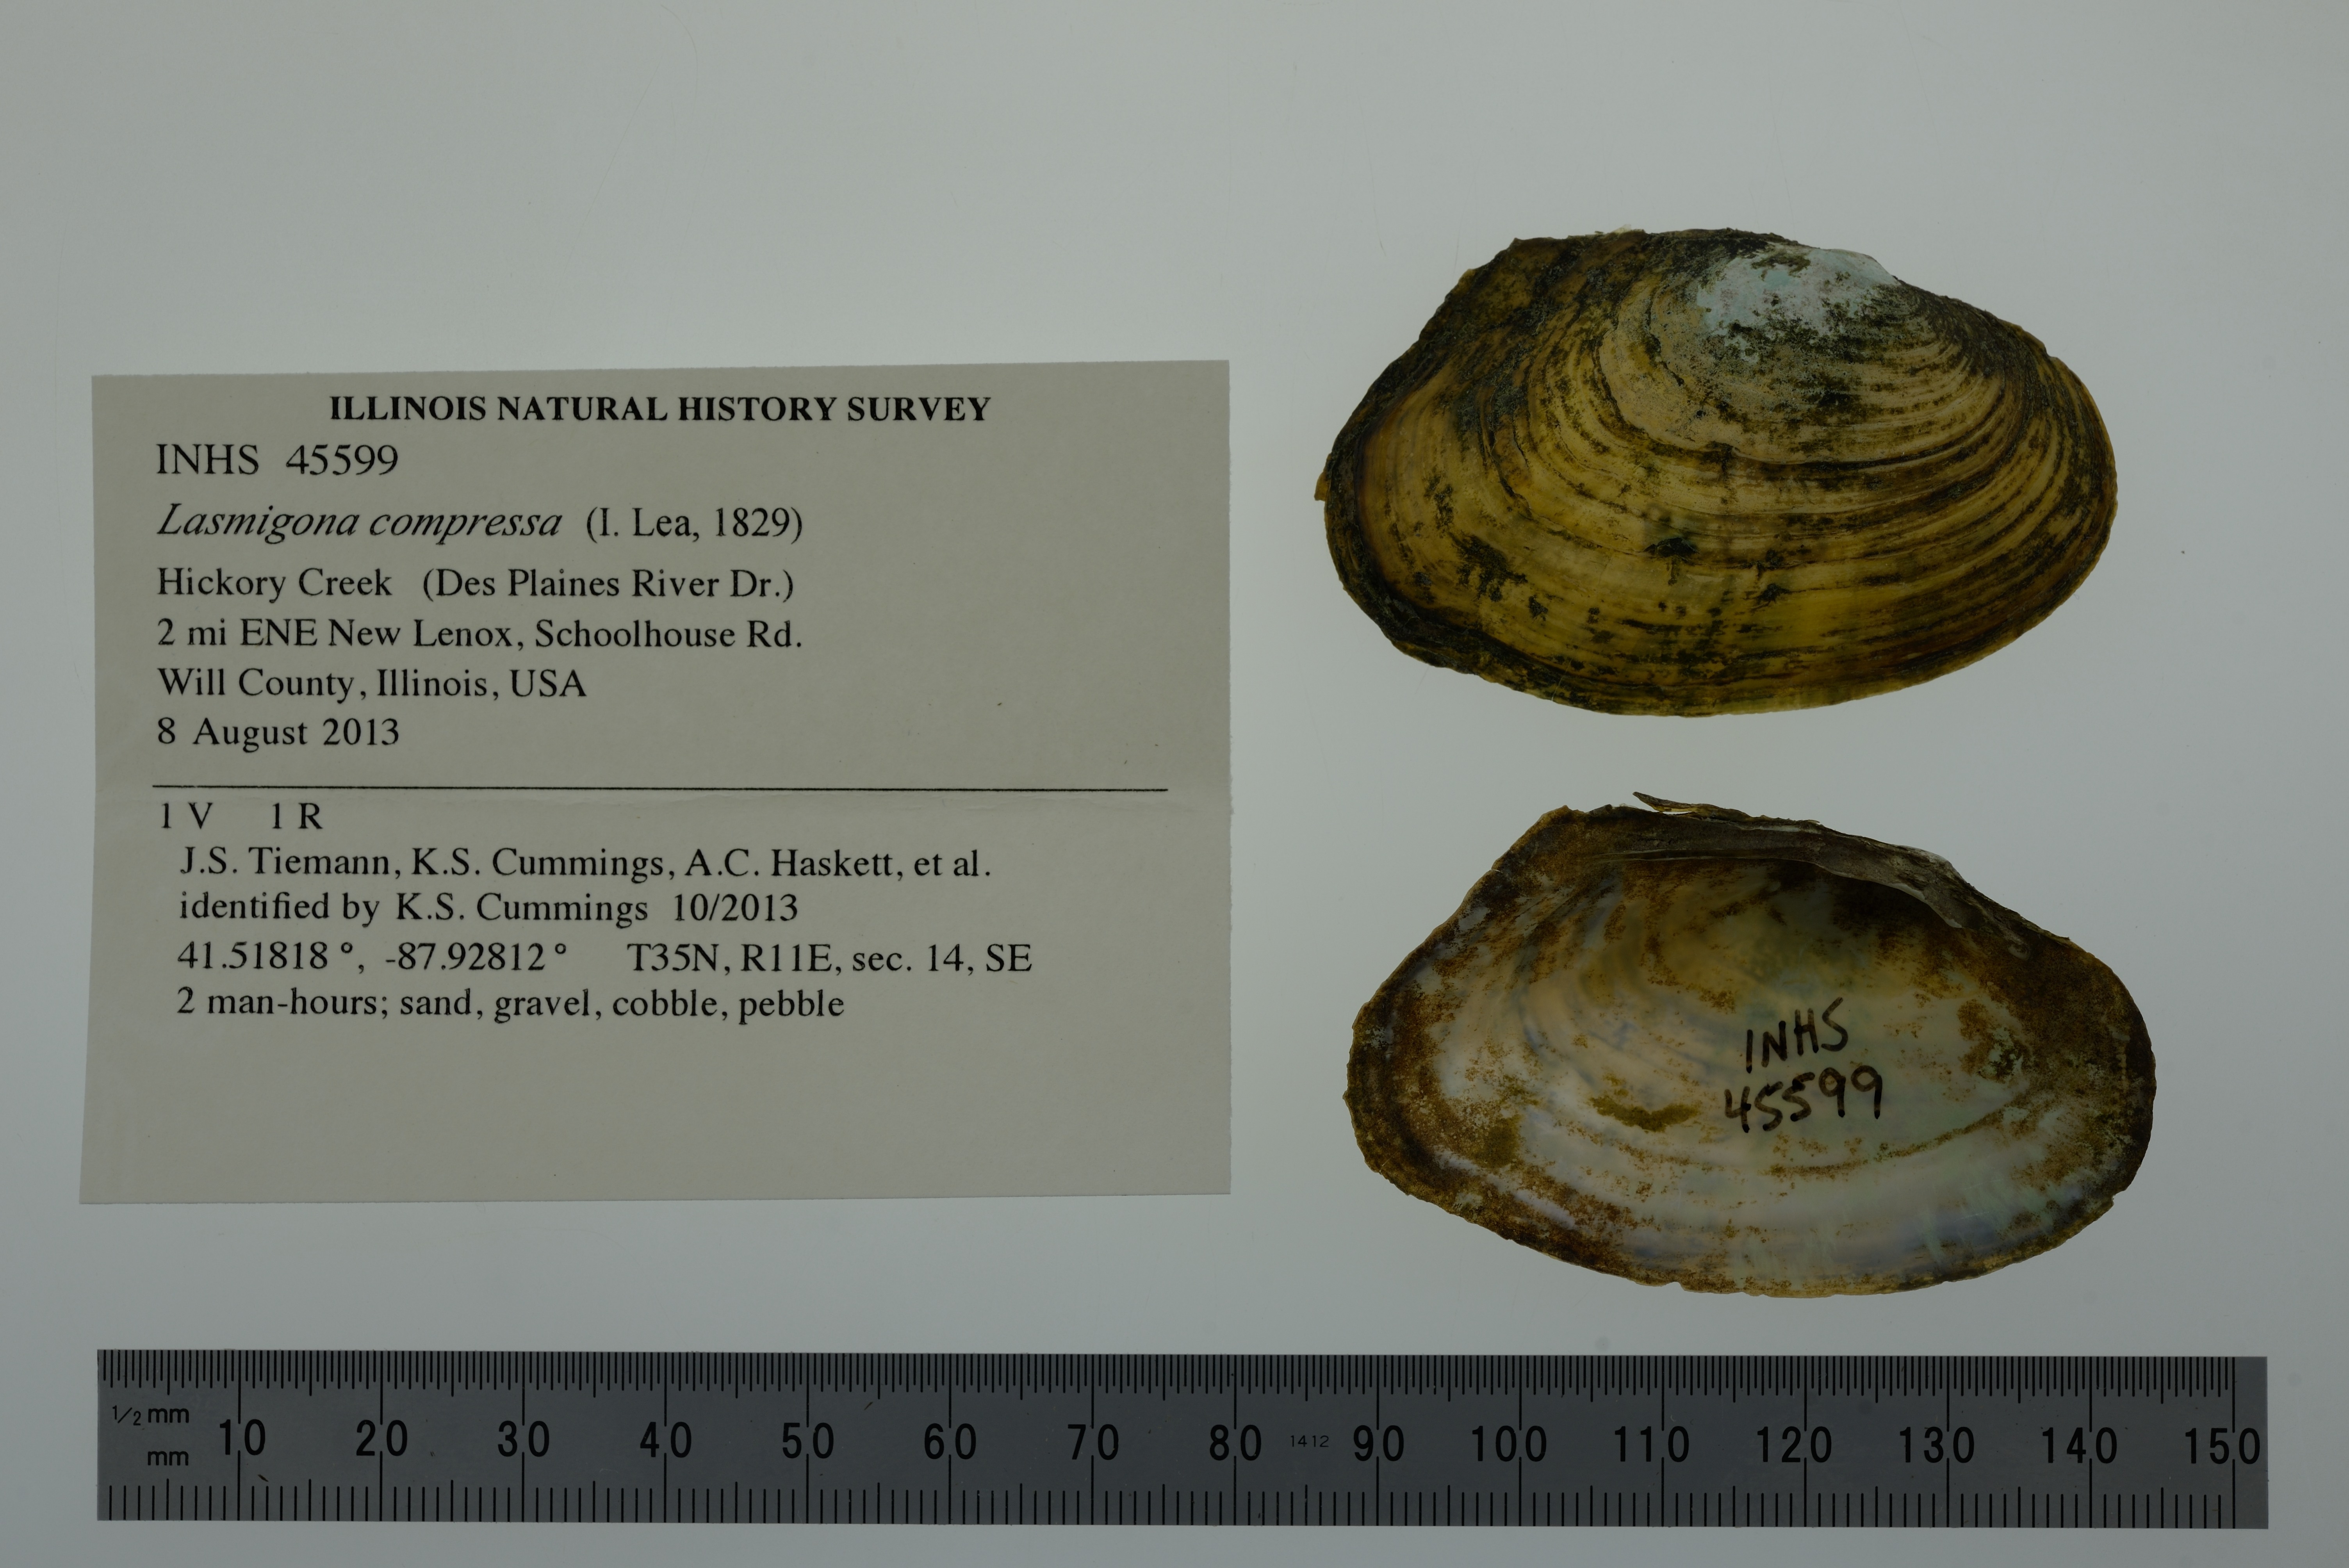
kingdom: Animalia
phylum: Mollusca
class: Bivalvia
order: Unionida
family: Unionidae
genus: Lasmigona
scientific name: Lasmigona compressa
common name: Creek heelsplitter
